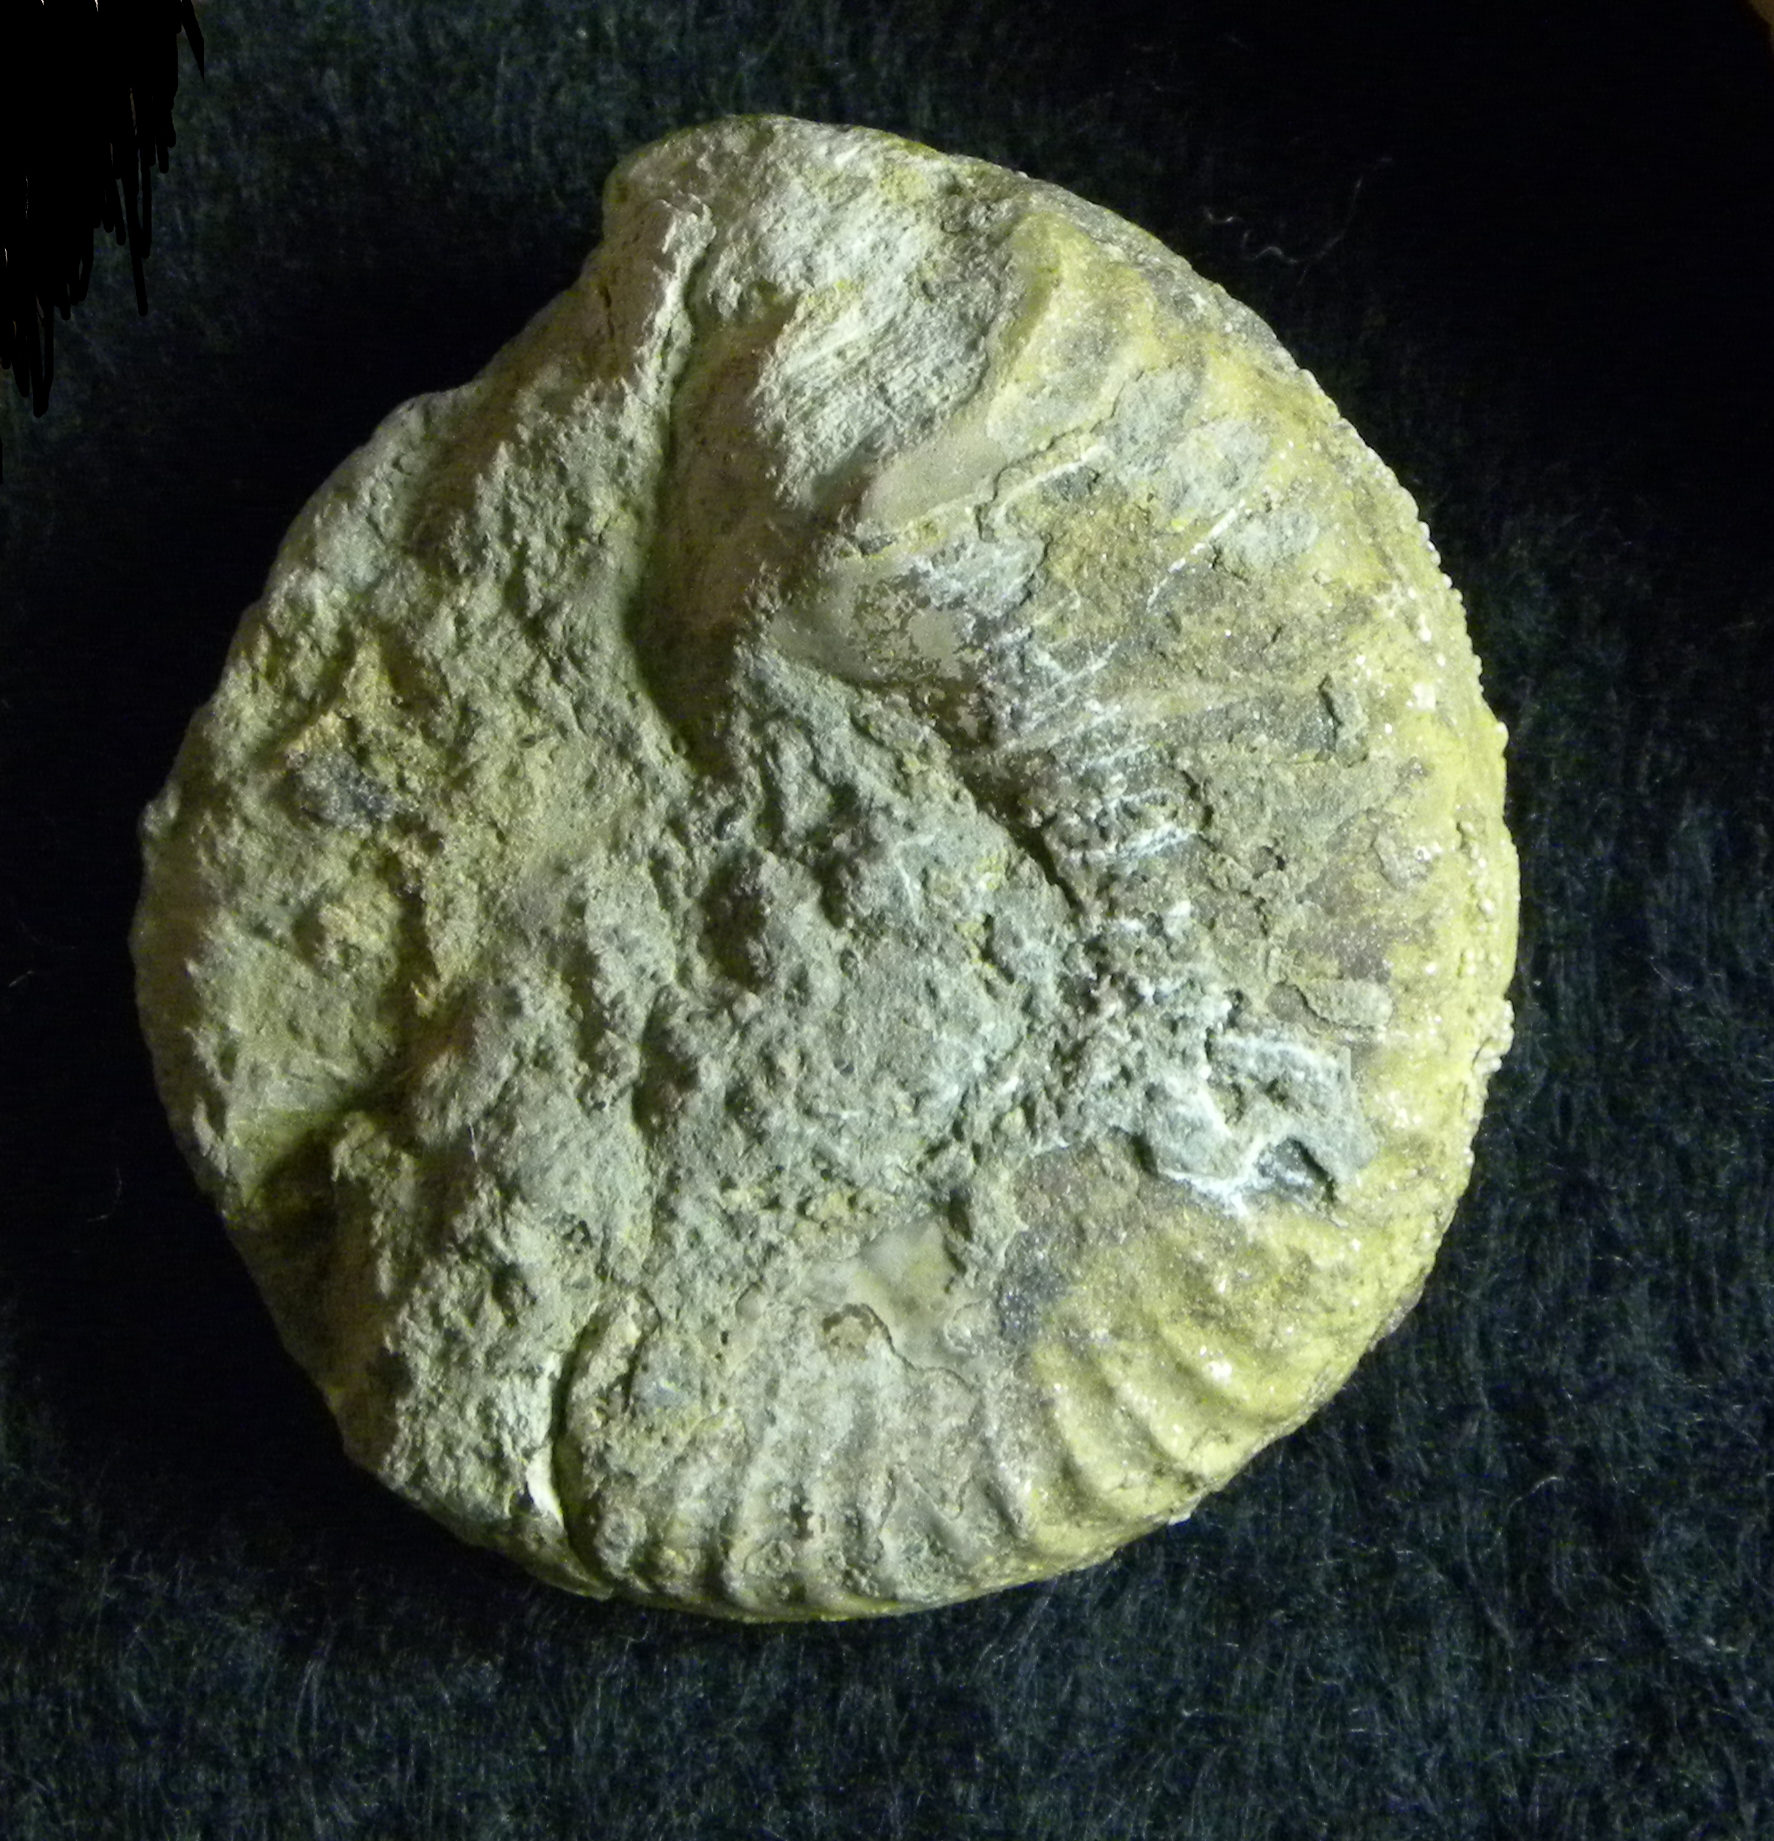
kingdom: Animalia
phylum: Mollusca
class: Cephalopoda
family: Hildoceratidae
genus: Pseudogrammoceras
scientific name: Pseudogrammoceras doerntense
